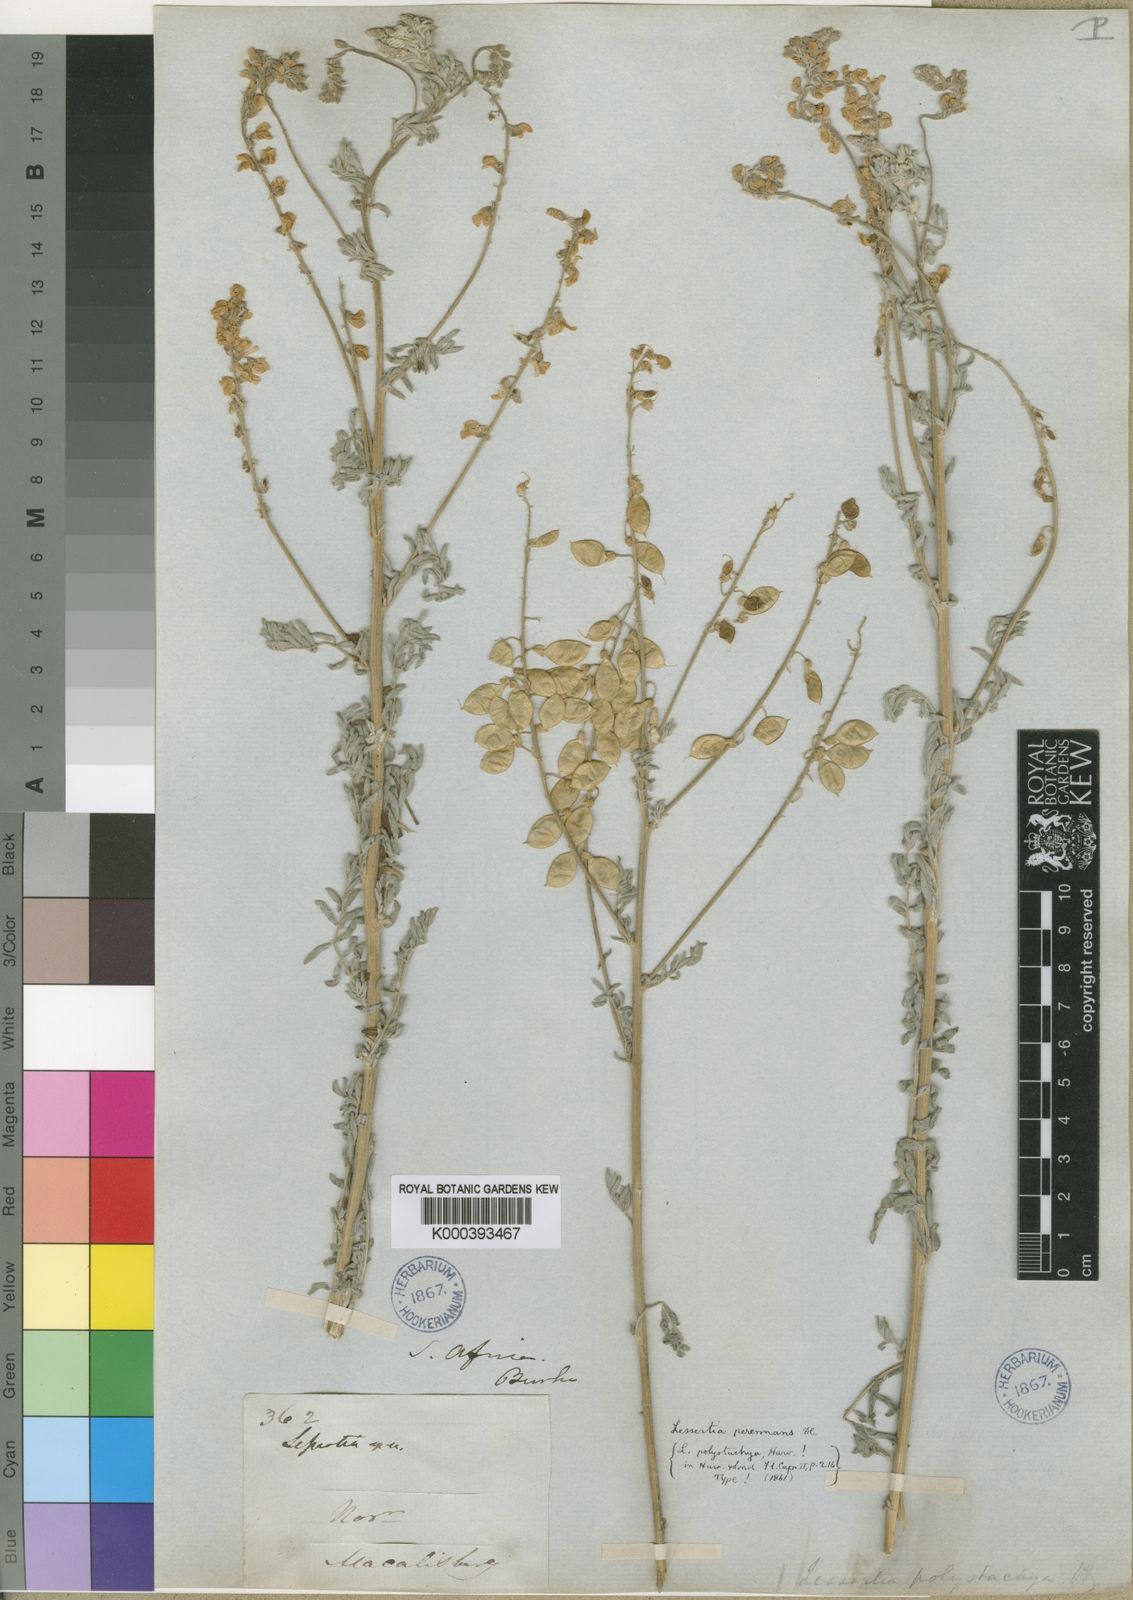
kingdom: Plantae
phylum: Tracheophyta
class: Magnoliopsida
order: Fabales
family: Fabaceae
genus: Lessertia
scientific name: Lessertia perennans
